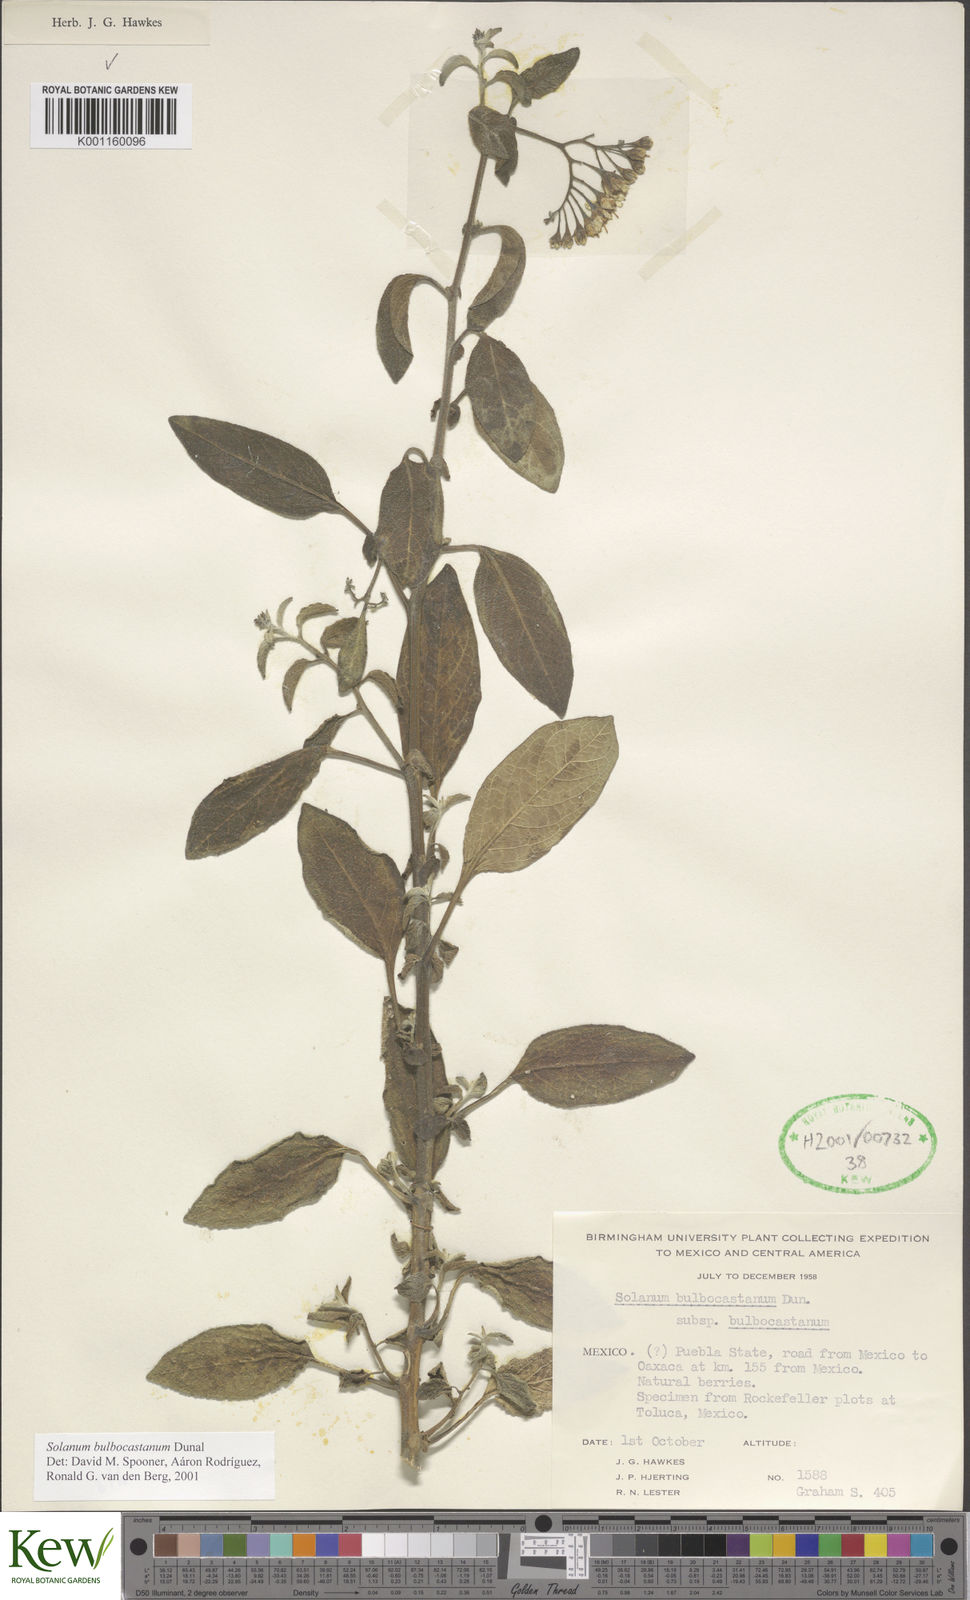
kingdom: Plantae
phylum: Tracheophyta
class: Magnoliopsida
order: Solanales
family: Solanaceae
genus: Solanum
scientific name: Solanum bulbocastanum
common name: Ornamental nightshade
